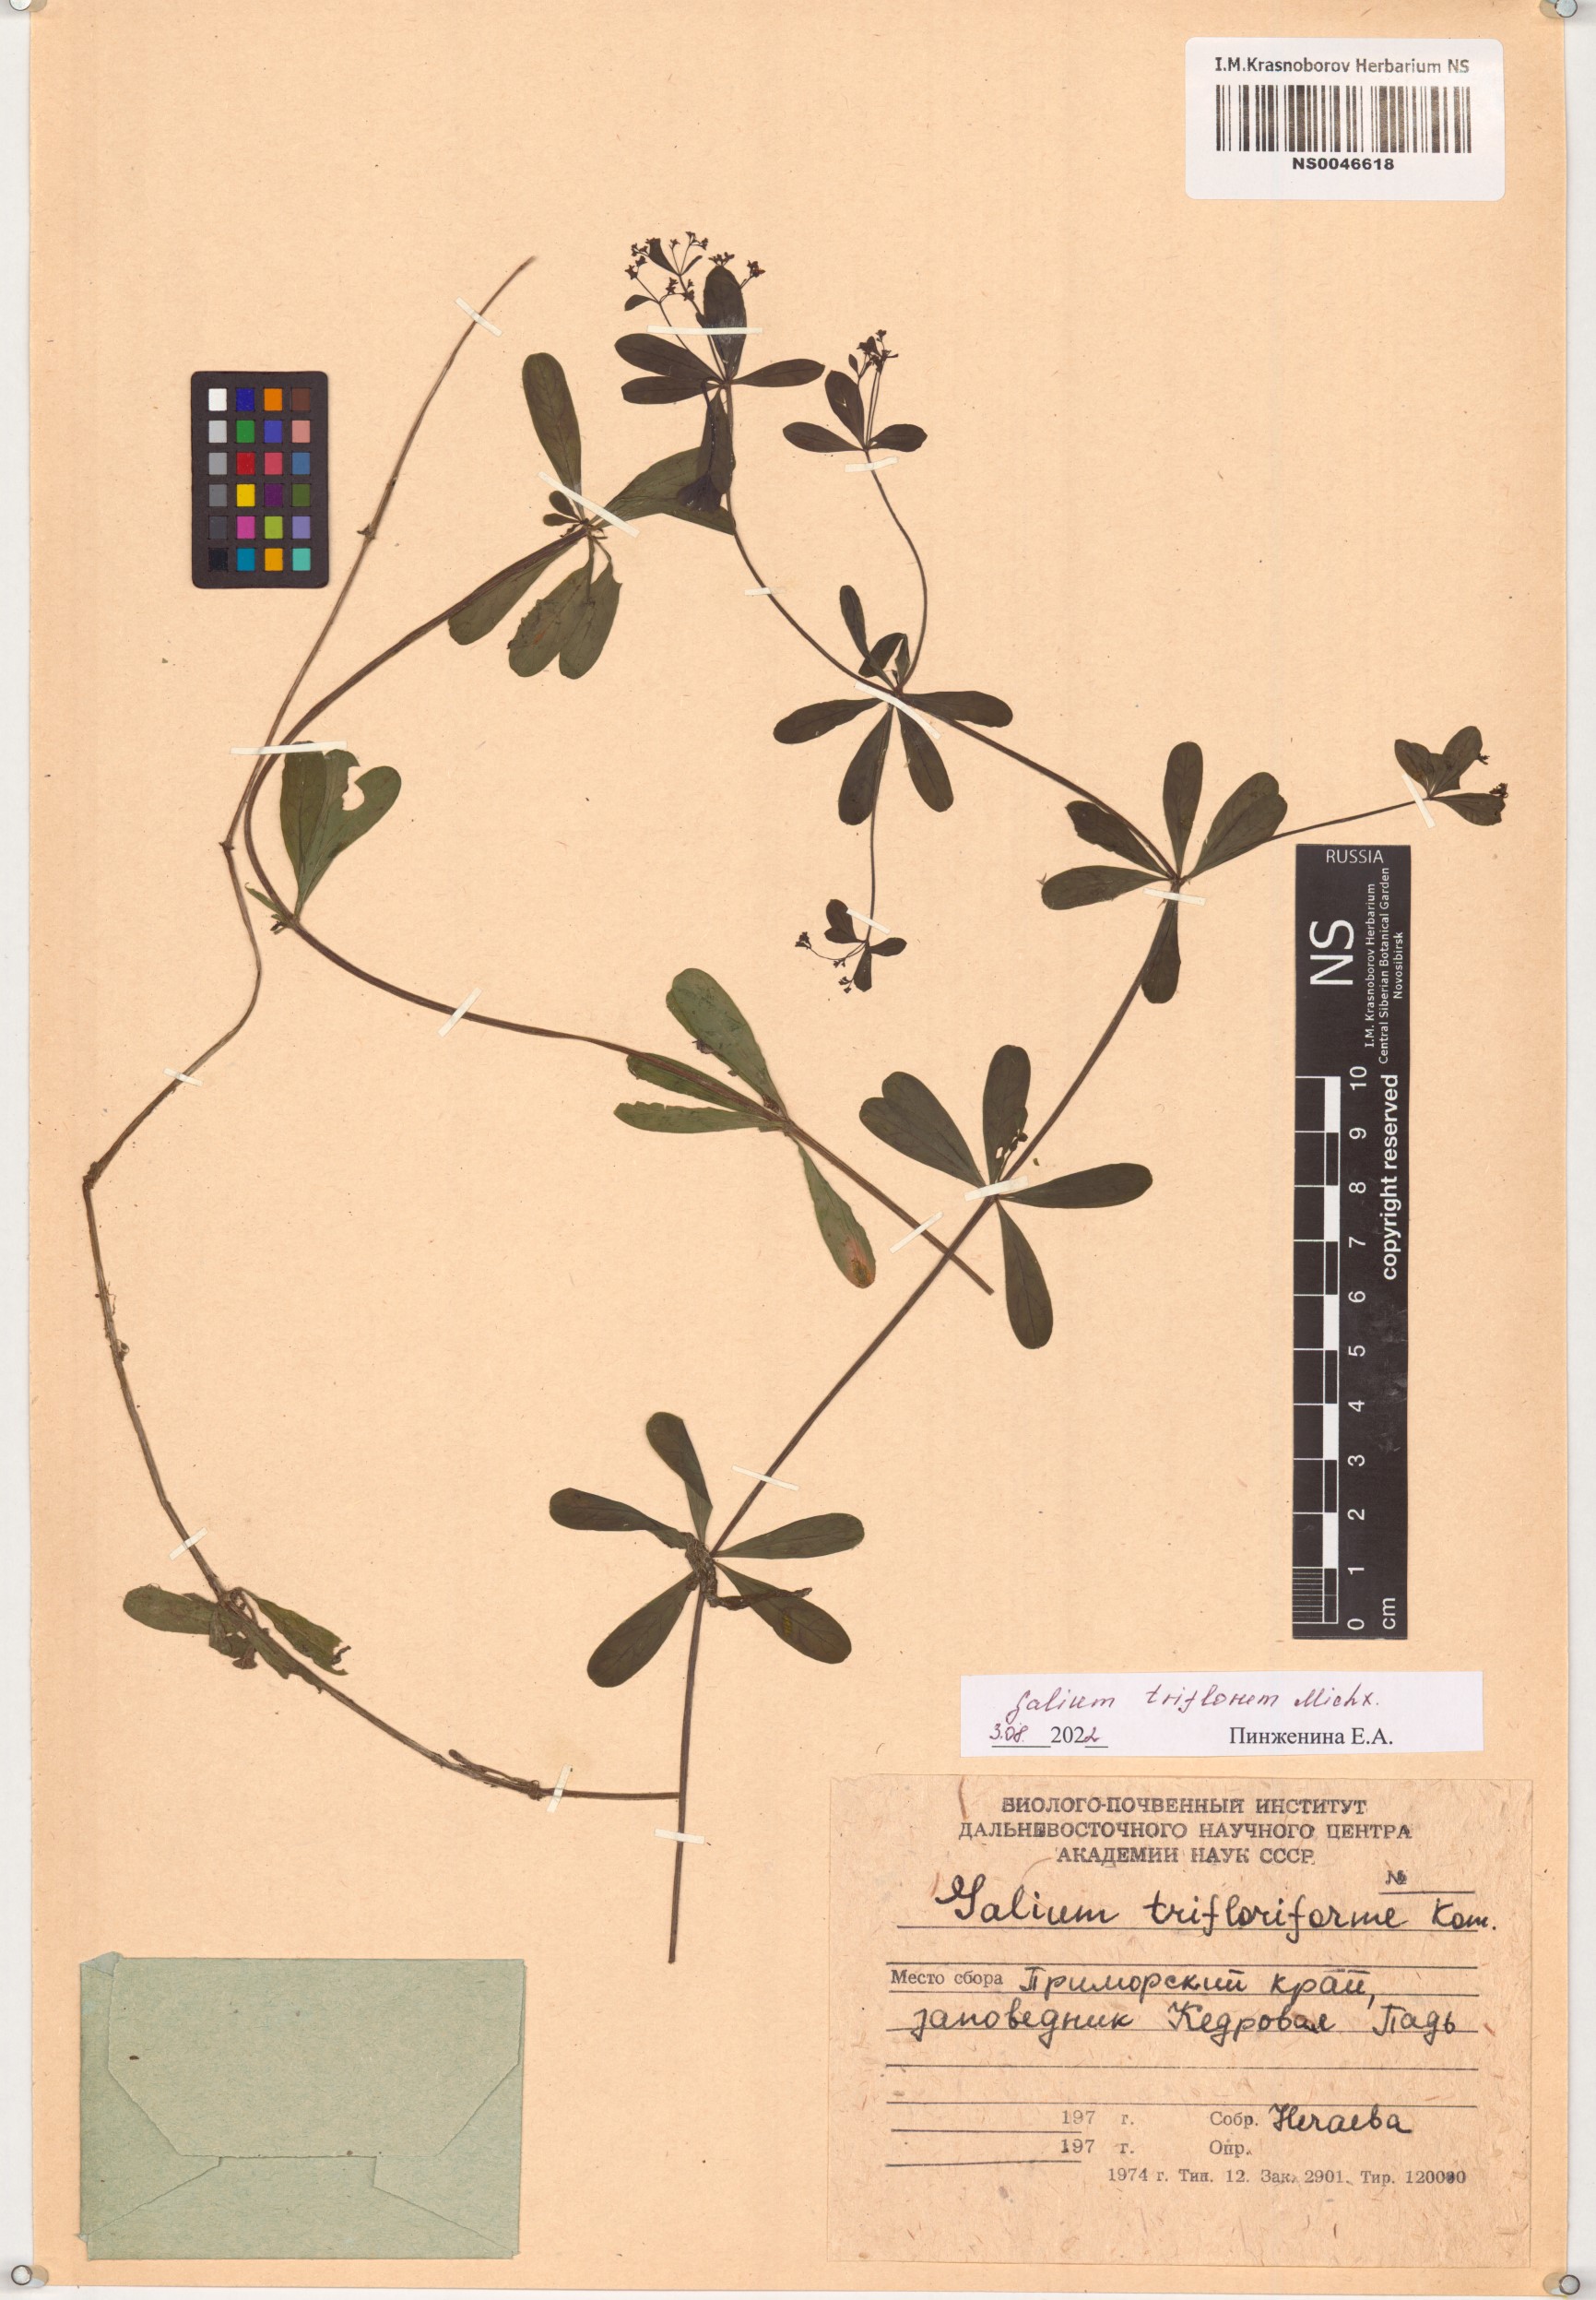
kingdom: Plantae
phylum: Tracheophyta
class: Magnoliopsida
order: Gentianales
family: Rubiaceae
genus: Galium
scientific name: Galium triflorum
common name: Fragrant bedstraw
